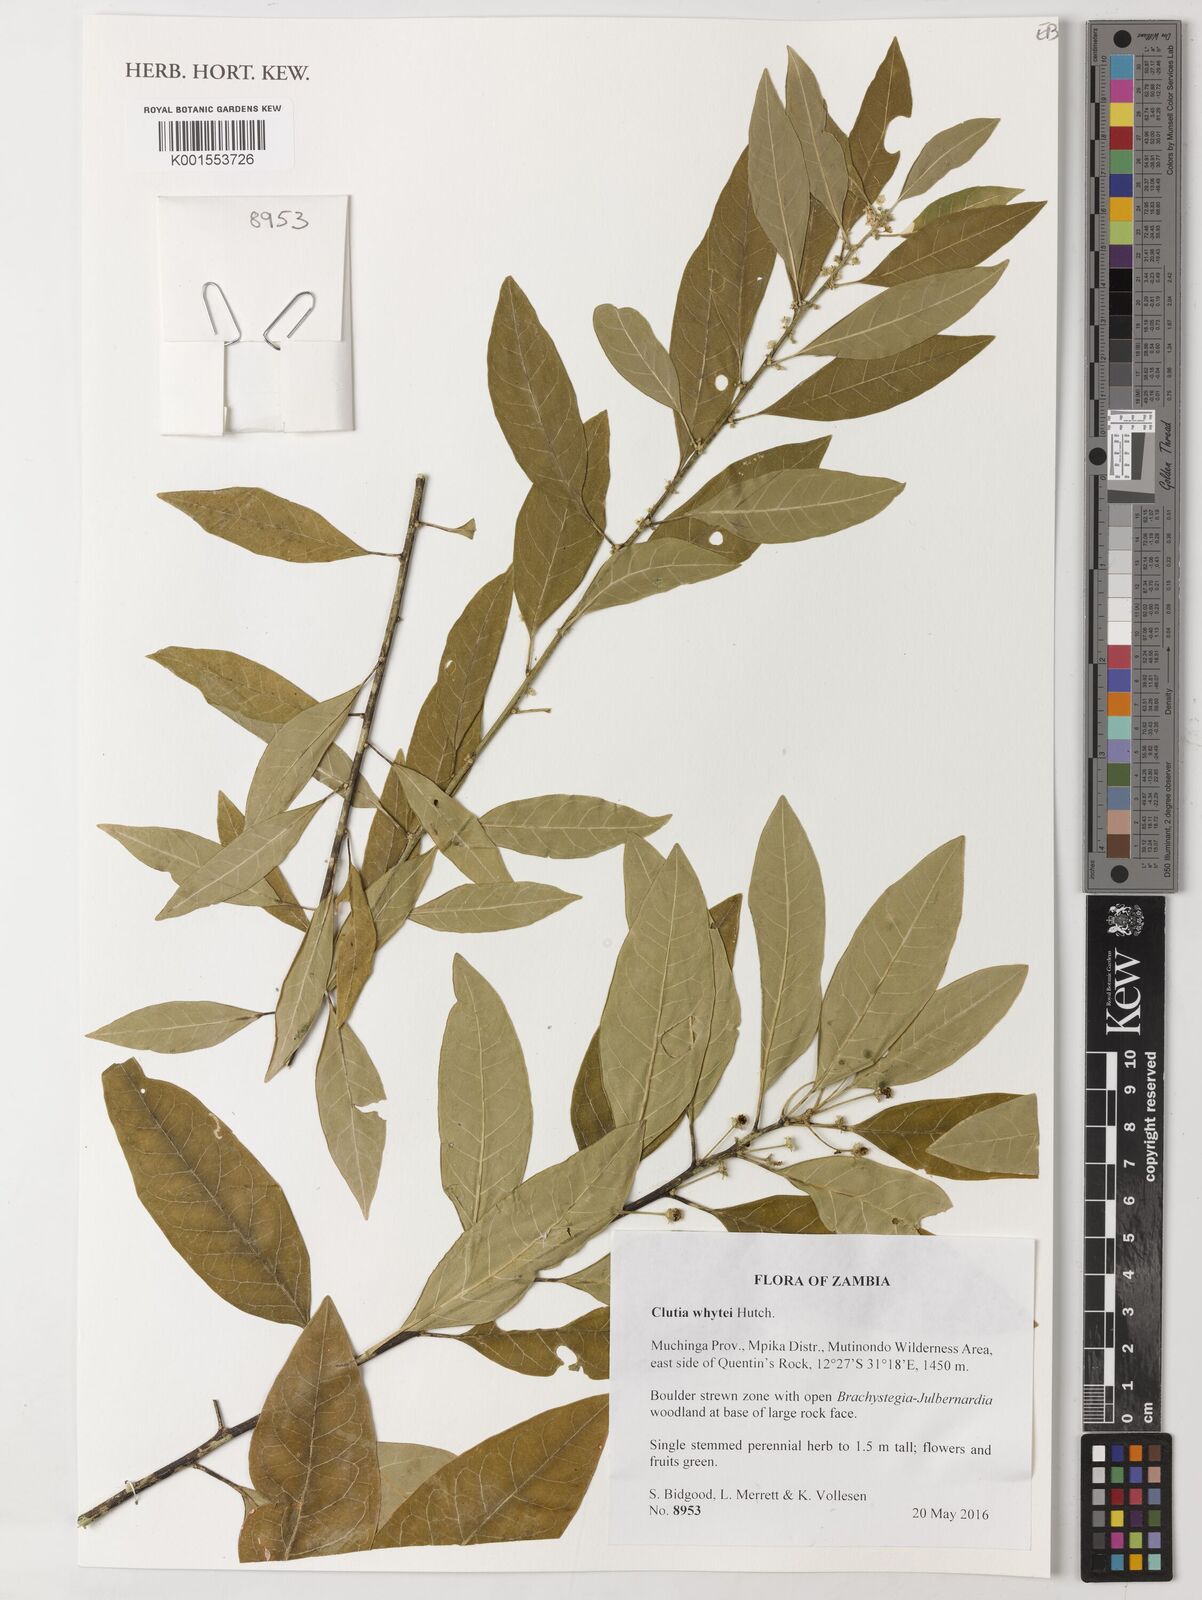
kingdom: Plantae
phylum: Tracheophyta
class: Magnoliopsida
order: Malpighiales
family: Peraceae
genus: Clutia
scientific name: Clutia whytei
